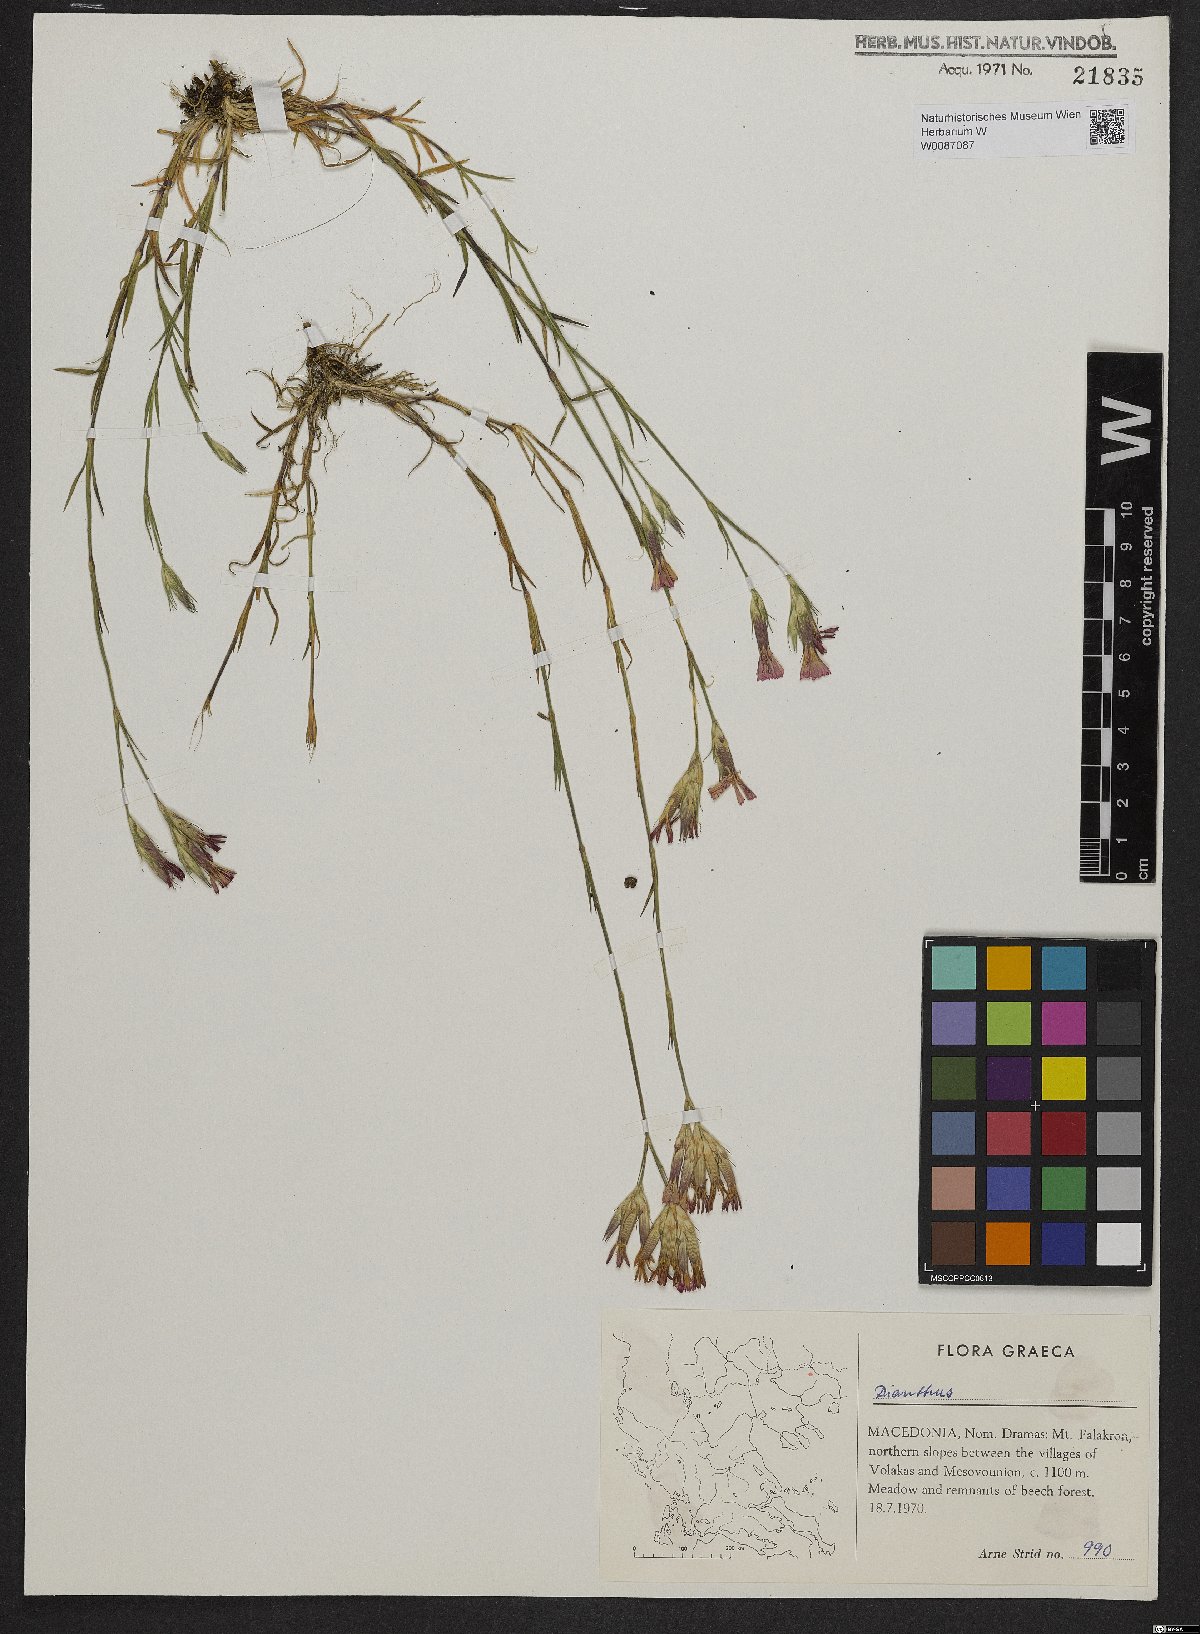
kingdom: Plantae
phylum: Tracheophyta
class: Magnoliopsida
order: Caryophyllales
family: Caryophyllaceae
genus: Dianthus
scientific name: Dianthus viscidus
